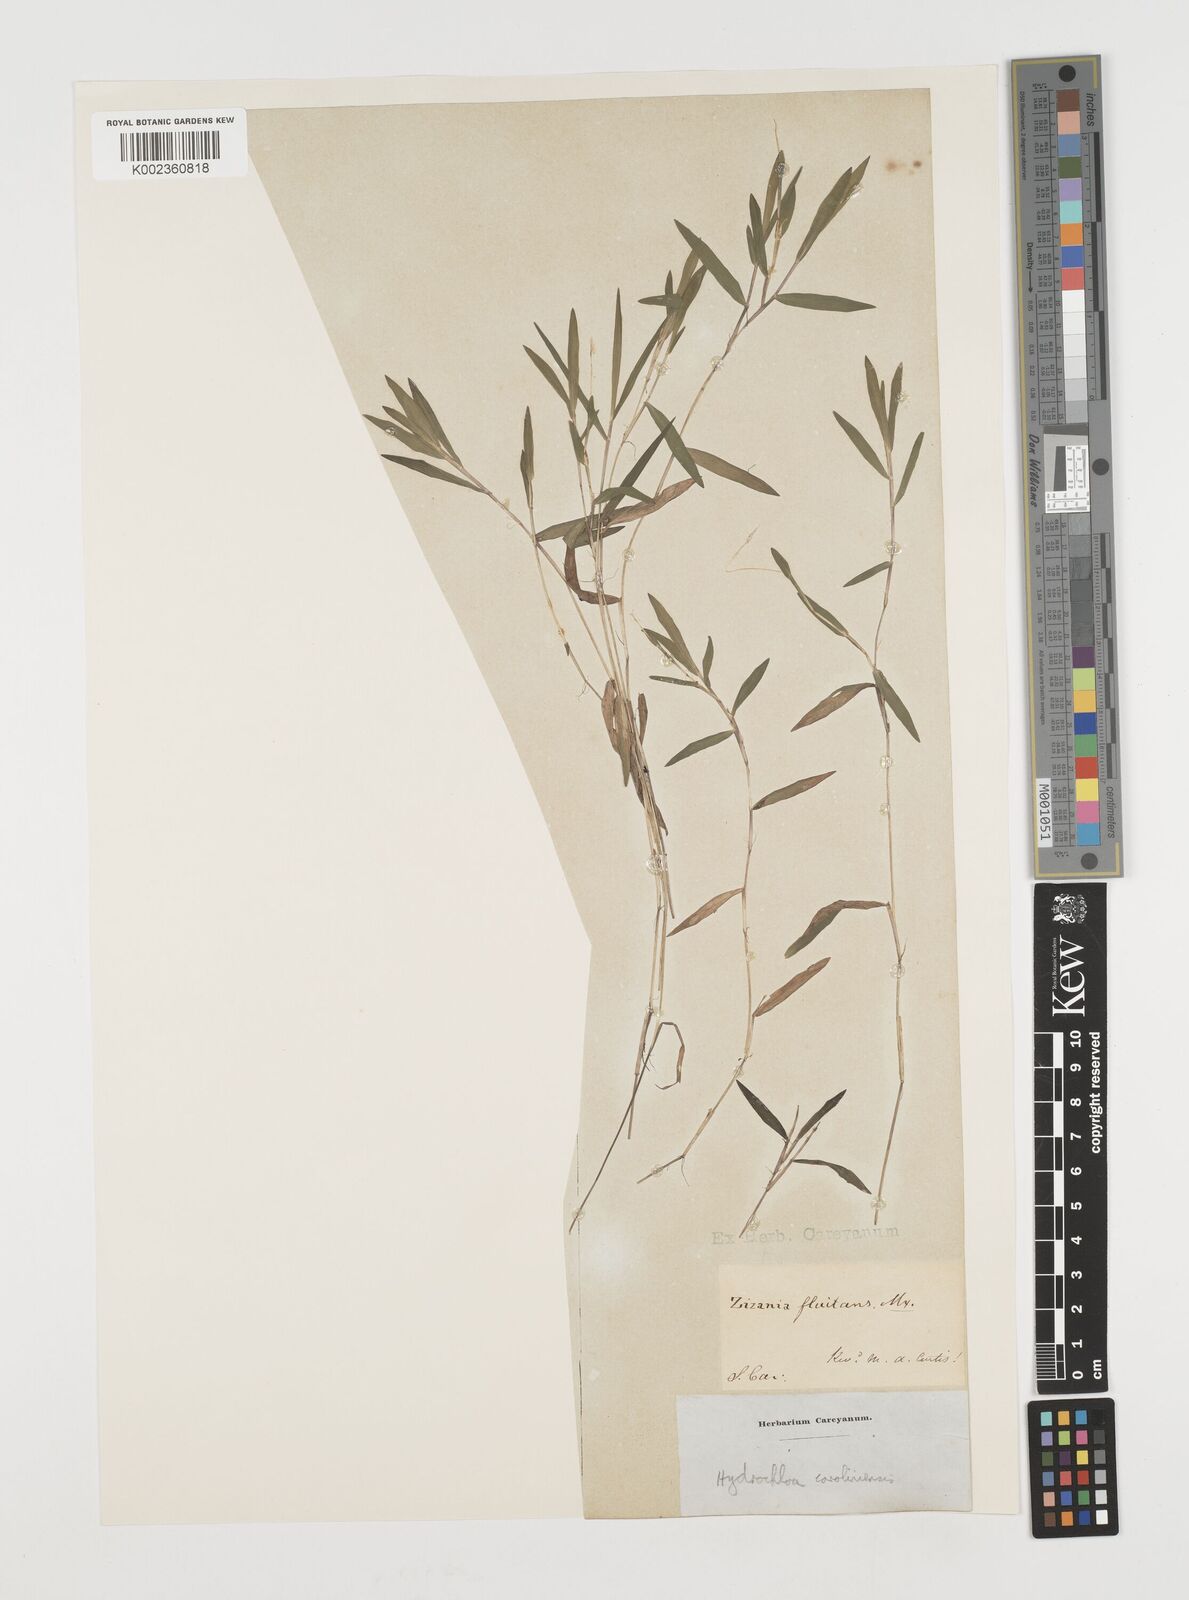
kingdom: Plantae
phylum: Tracheophyta
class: Liliopsida
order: Poales
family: Poaceae
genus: Luziola
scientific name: Luziola fluitans
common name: Silverleaf grass
